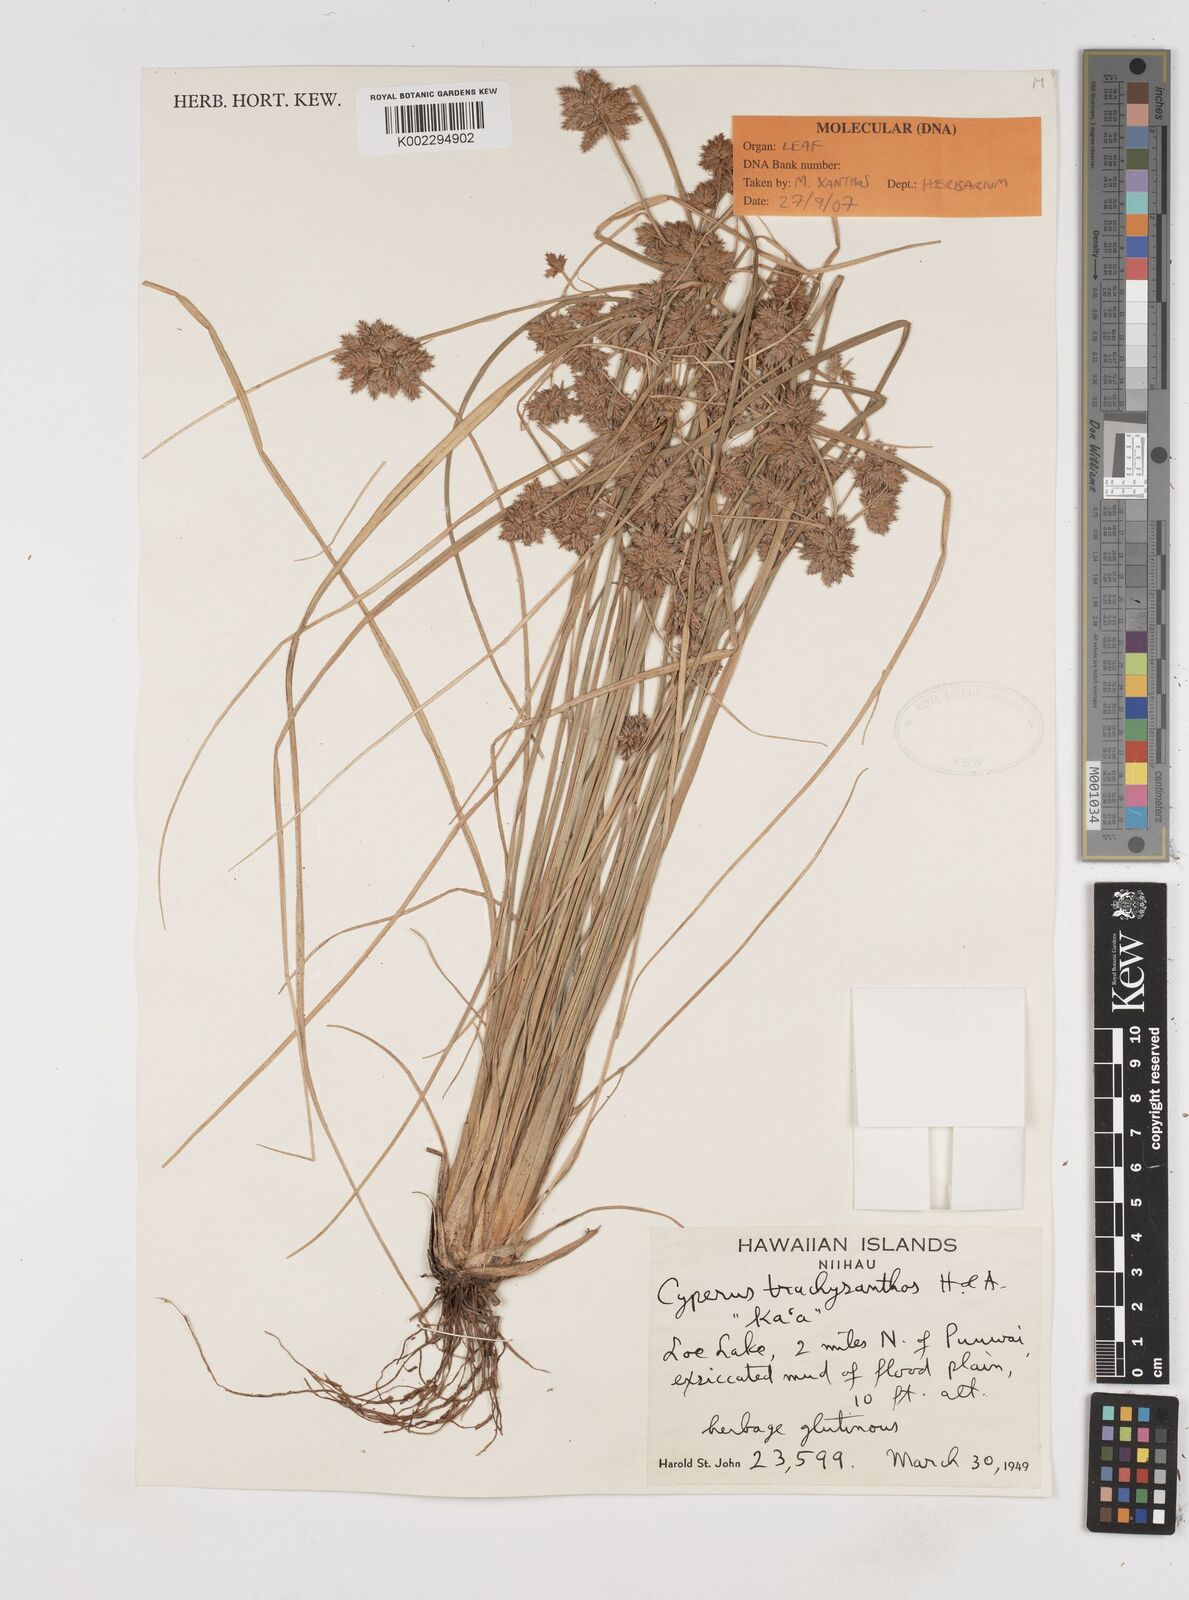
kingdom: Plantae
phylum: Tracheophyta
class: Liliopsida
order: Poales
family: Cyperaceae
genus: Cyperus
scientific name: Cyperus trachysanthos
